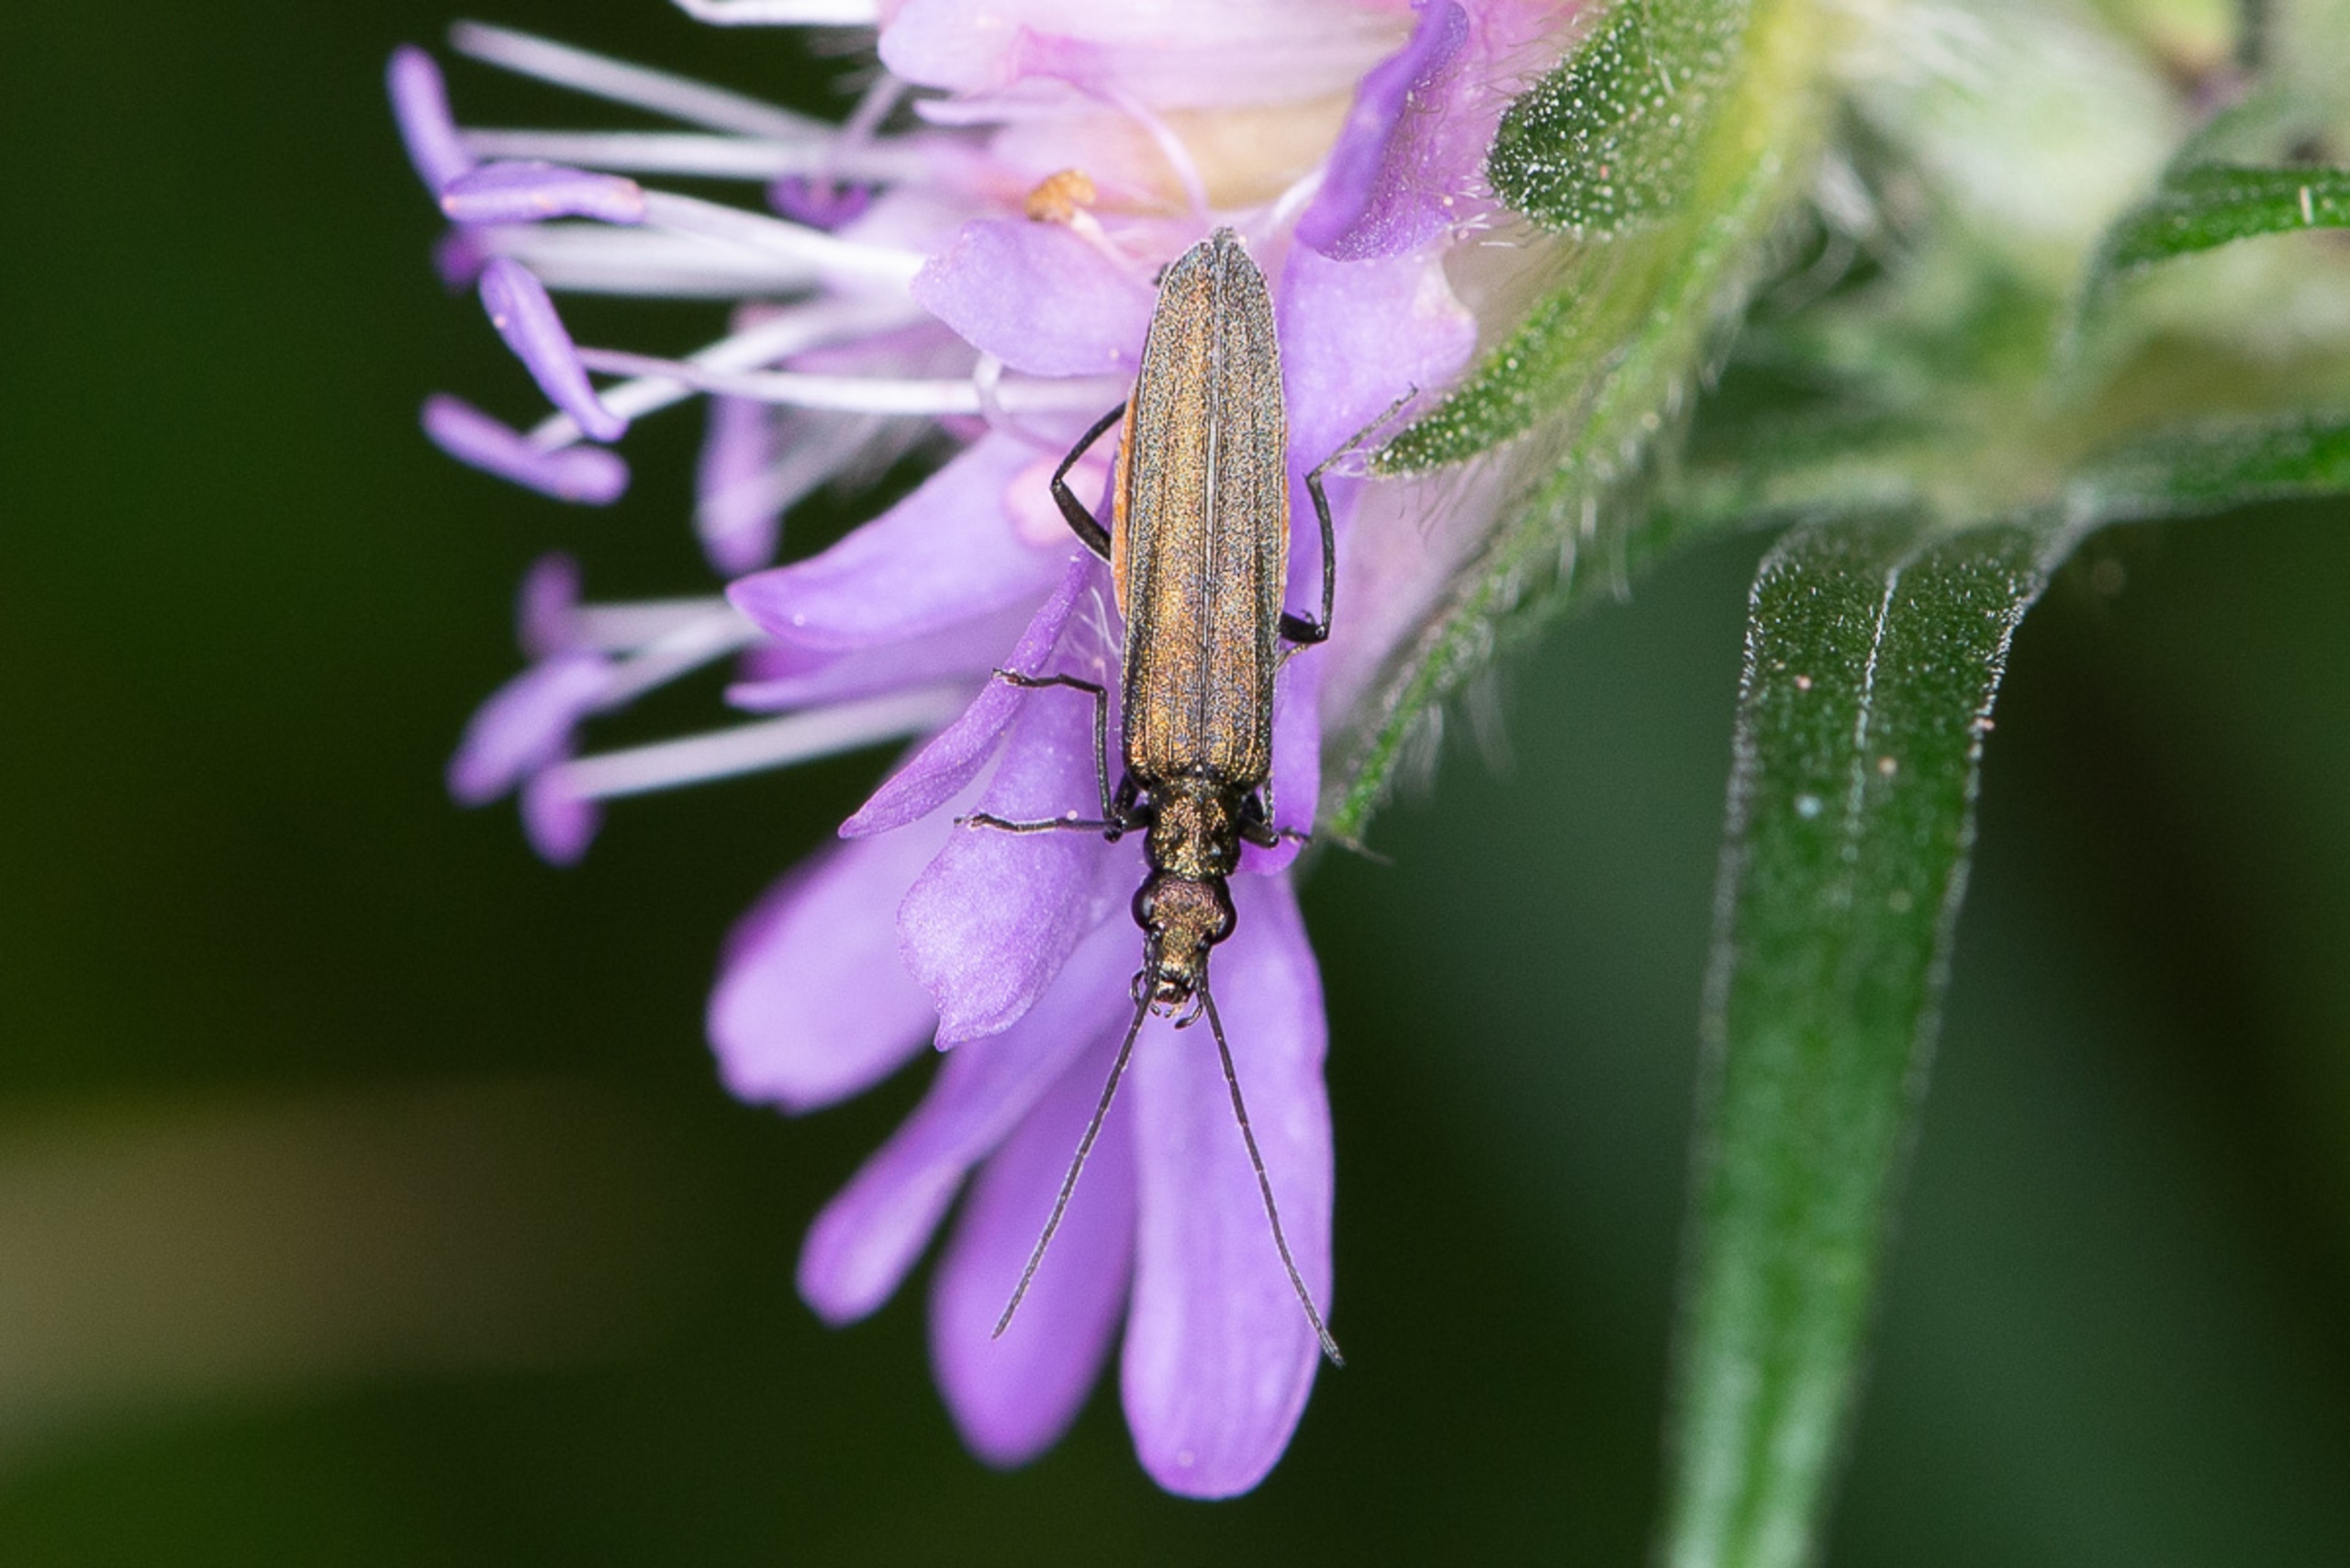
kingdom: Animalia
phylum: Arthropoda
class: Insecta
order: Coleoptera
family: Oedemeridae
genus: Oedemera
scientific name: Oedemera virescens
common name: Matgrøn solbille
